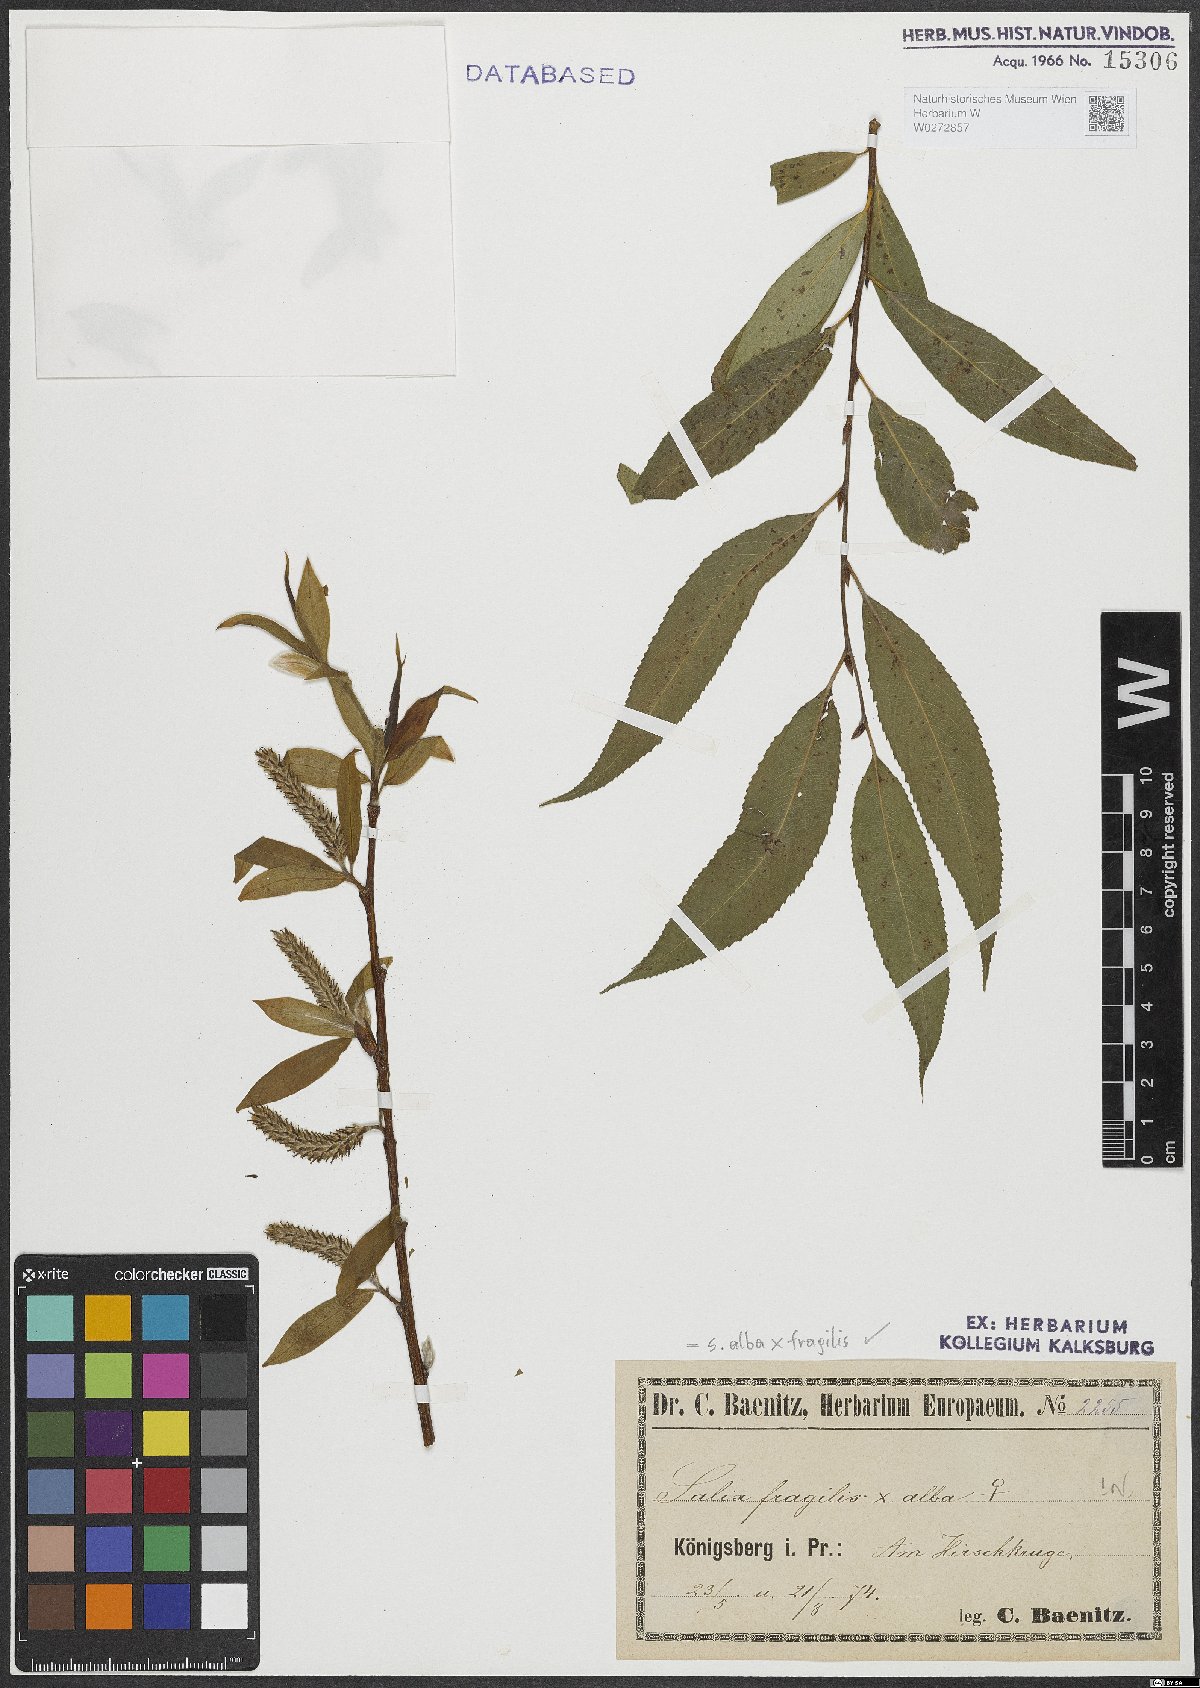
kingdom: Plantae
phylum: Tracheophyta
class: Magnoliopsida
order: Malpighiales
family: Salicaceae
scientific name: Salicaceae
